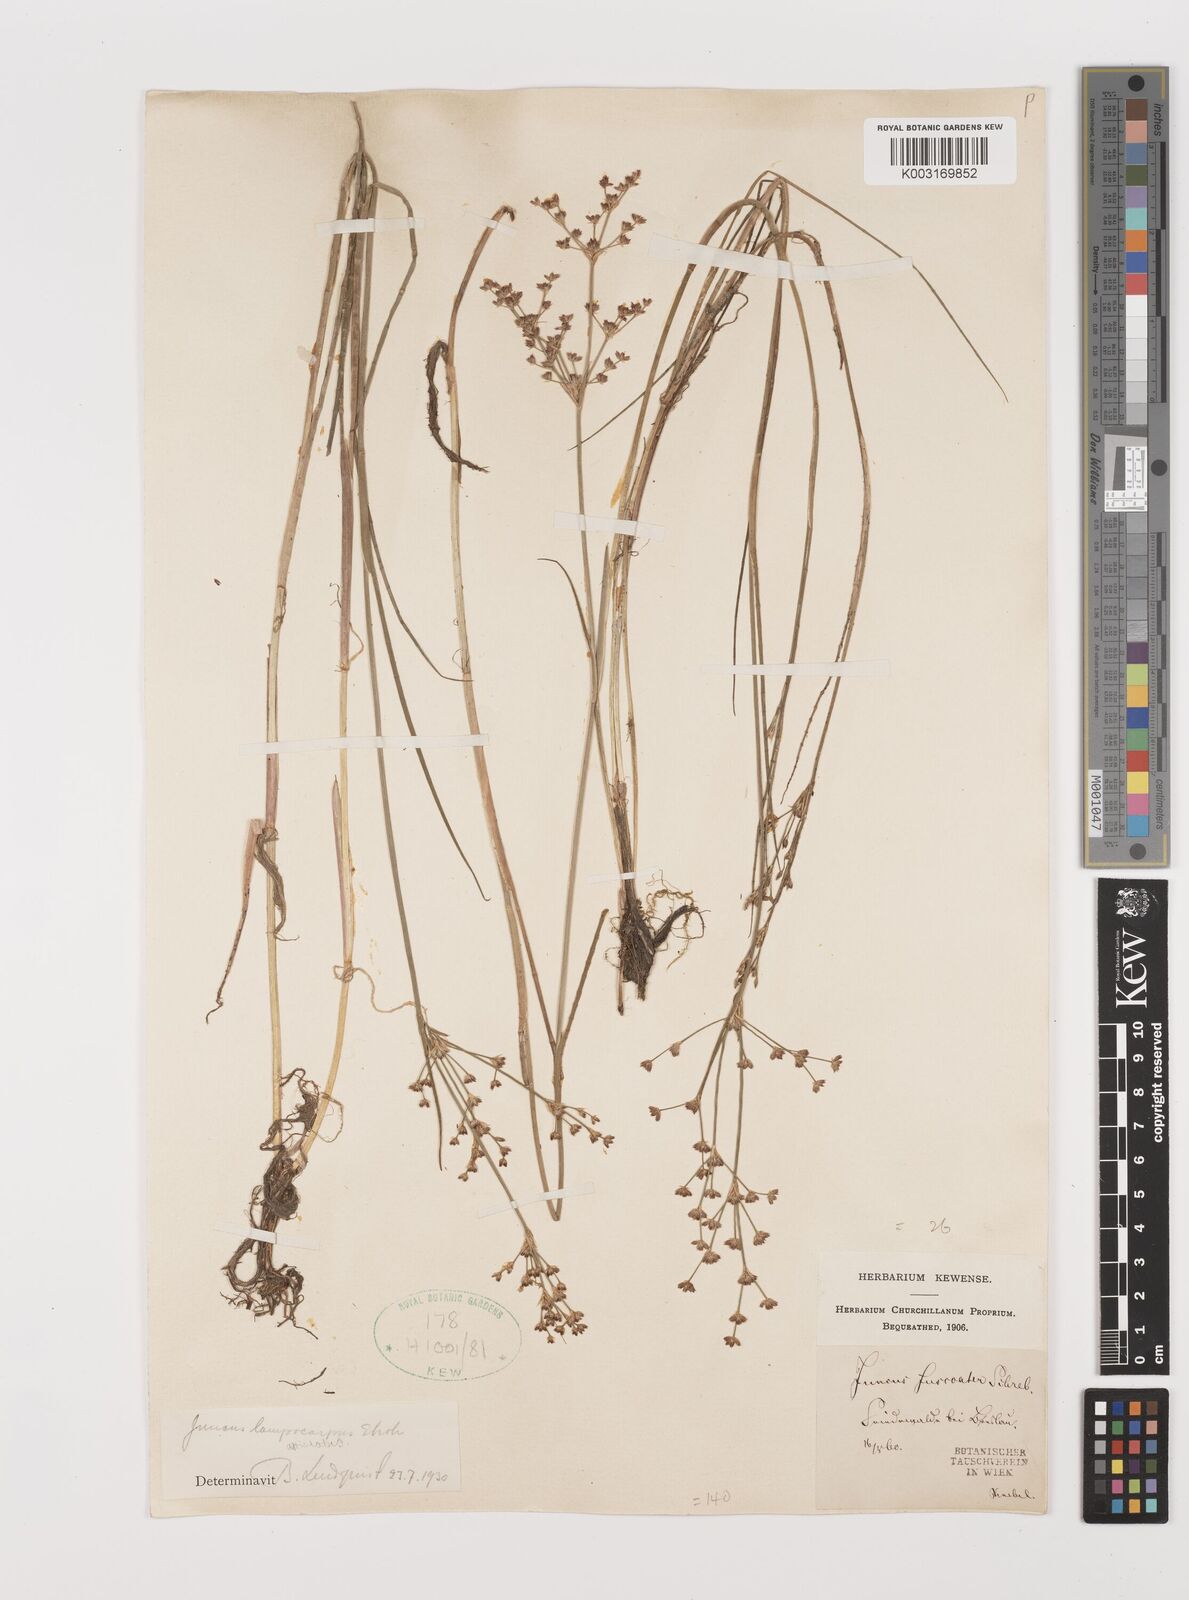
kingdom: Plantae
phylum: Tracheophyta
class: Liliopsida
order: Poales
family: Juncaceae
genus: Juncus
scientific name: Juncus articulatus
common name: Jointed rush
